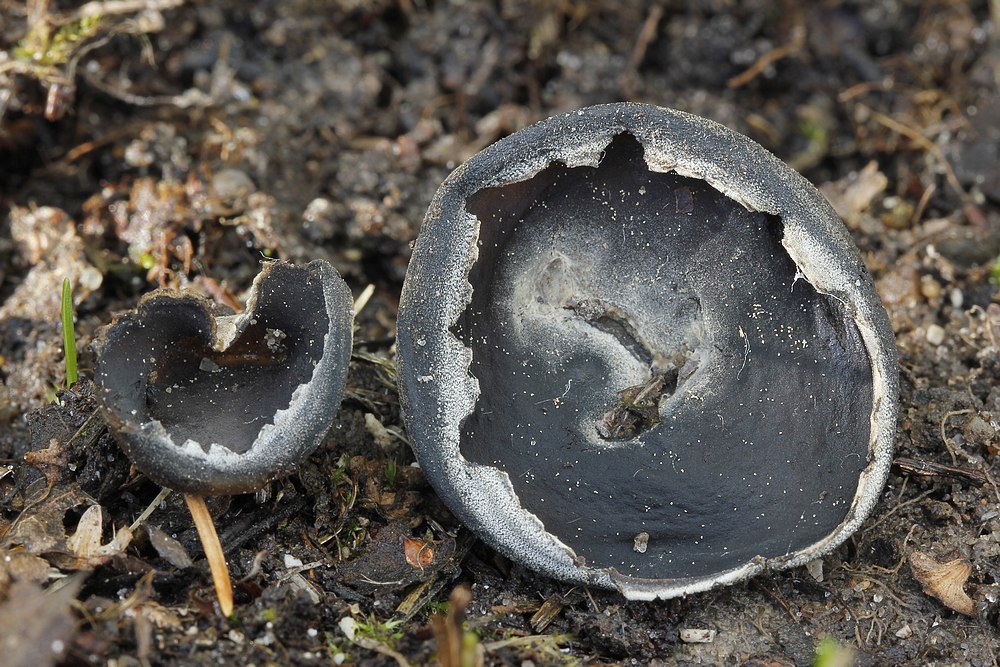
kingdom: Fungi
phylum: Ascomycota
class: Pezizomycetes
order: Pezizales
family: Helvellaceae
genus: Dissingia
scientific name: Dissingia confusa
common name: gran-foldhat
